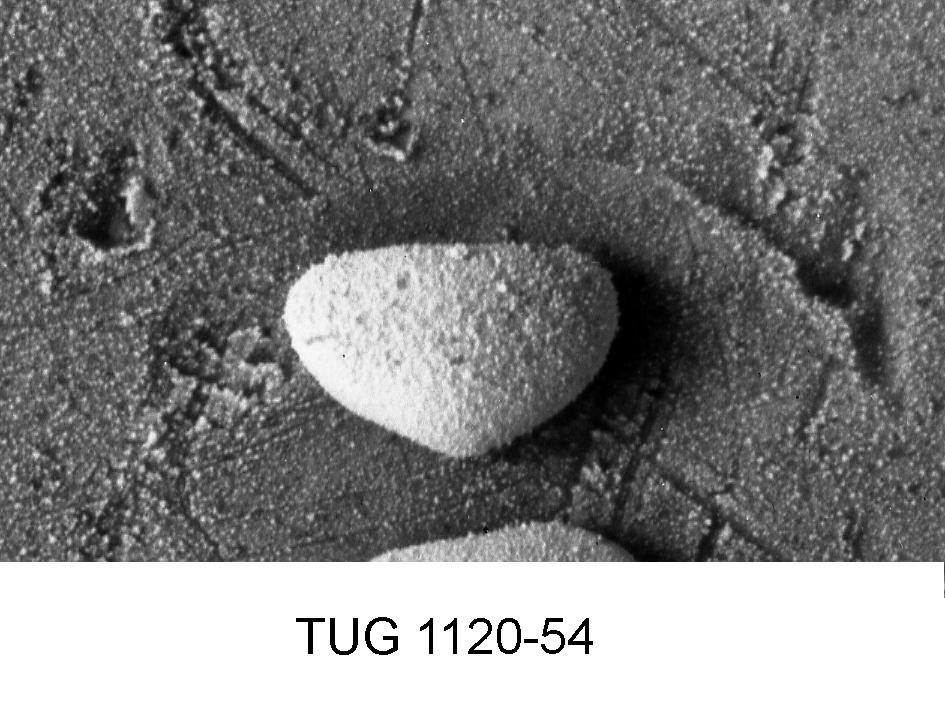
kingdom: Animalia
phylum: Arthropoda
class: Ostracoda
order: Podocopida
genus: Pullvillites
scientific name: Pullvillites
